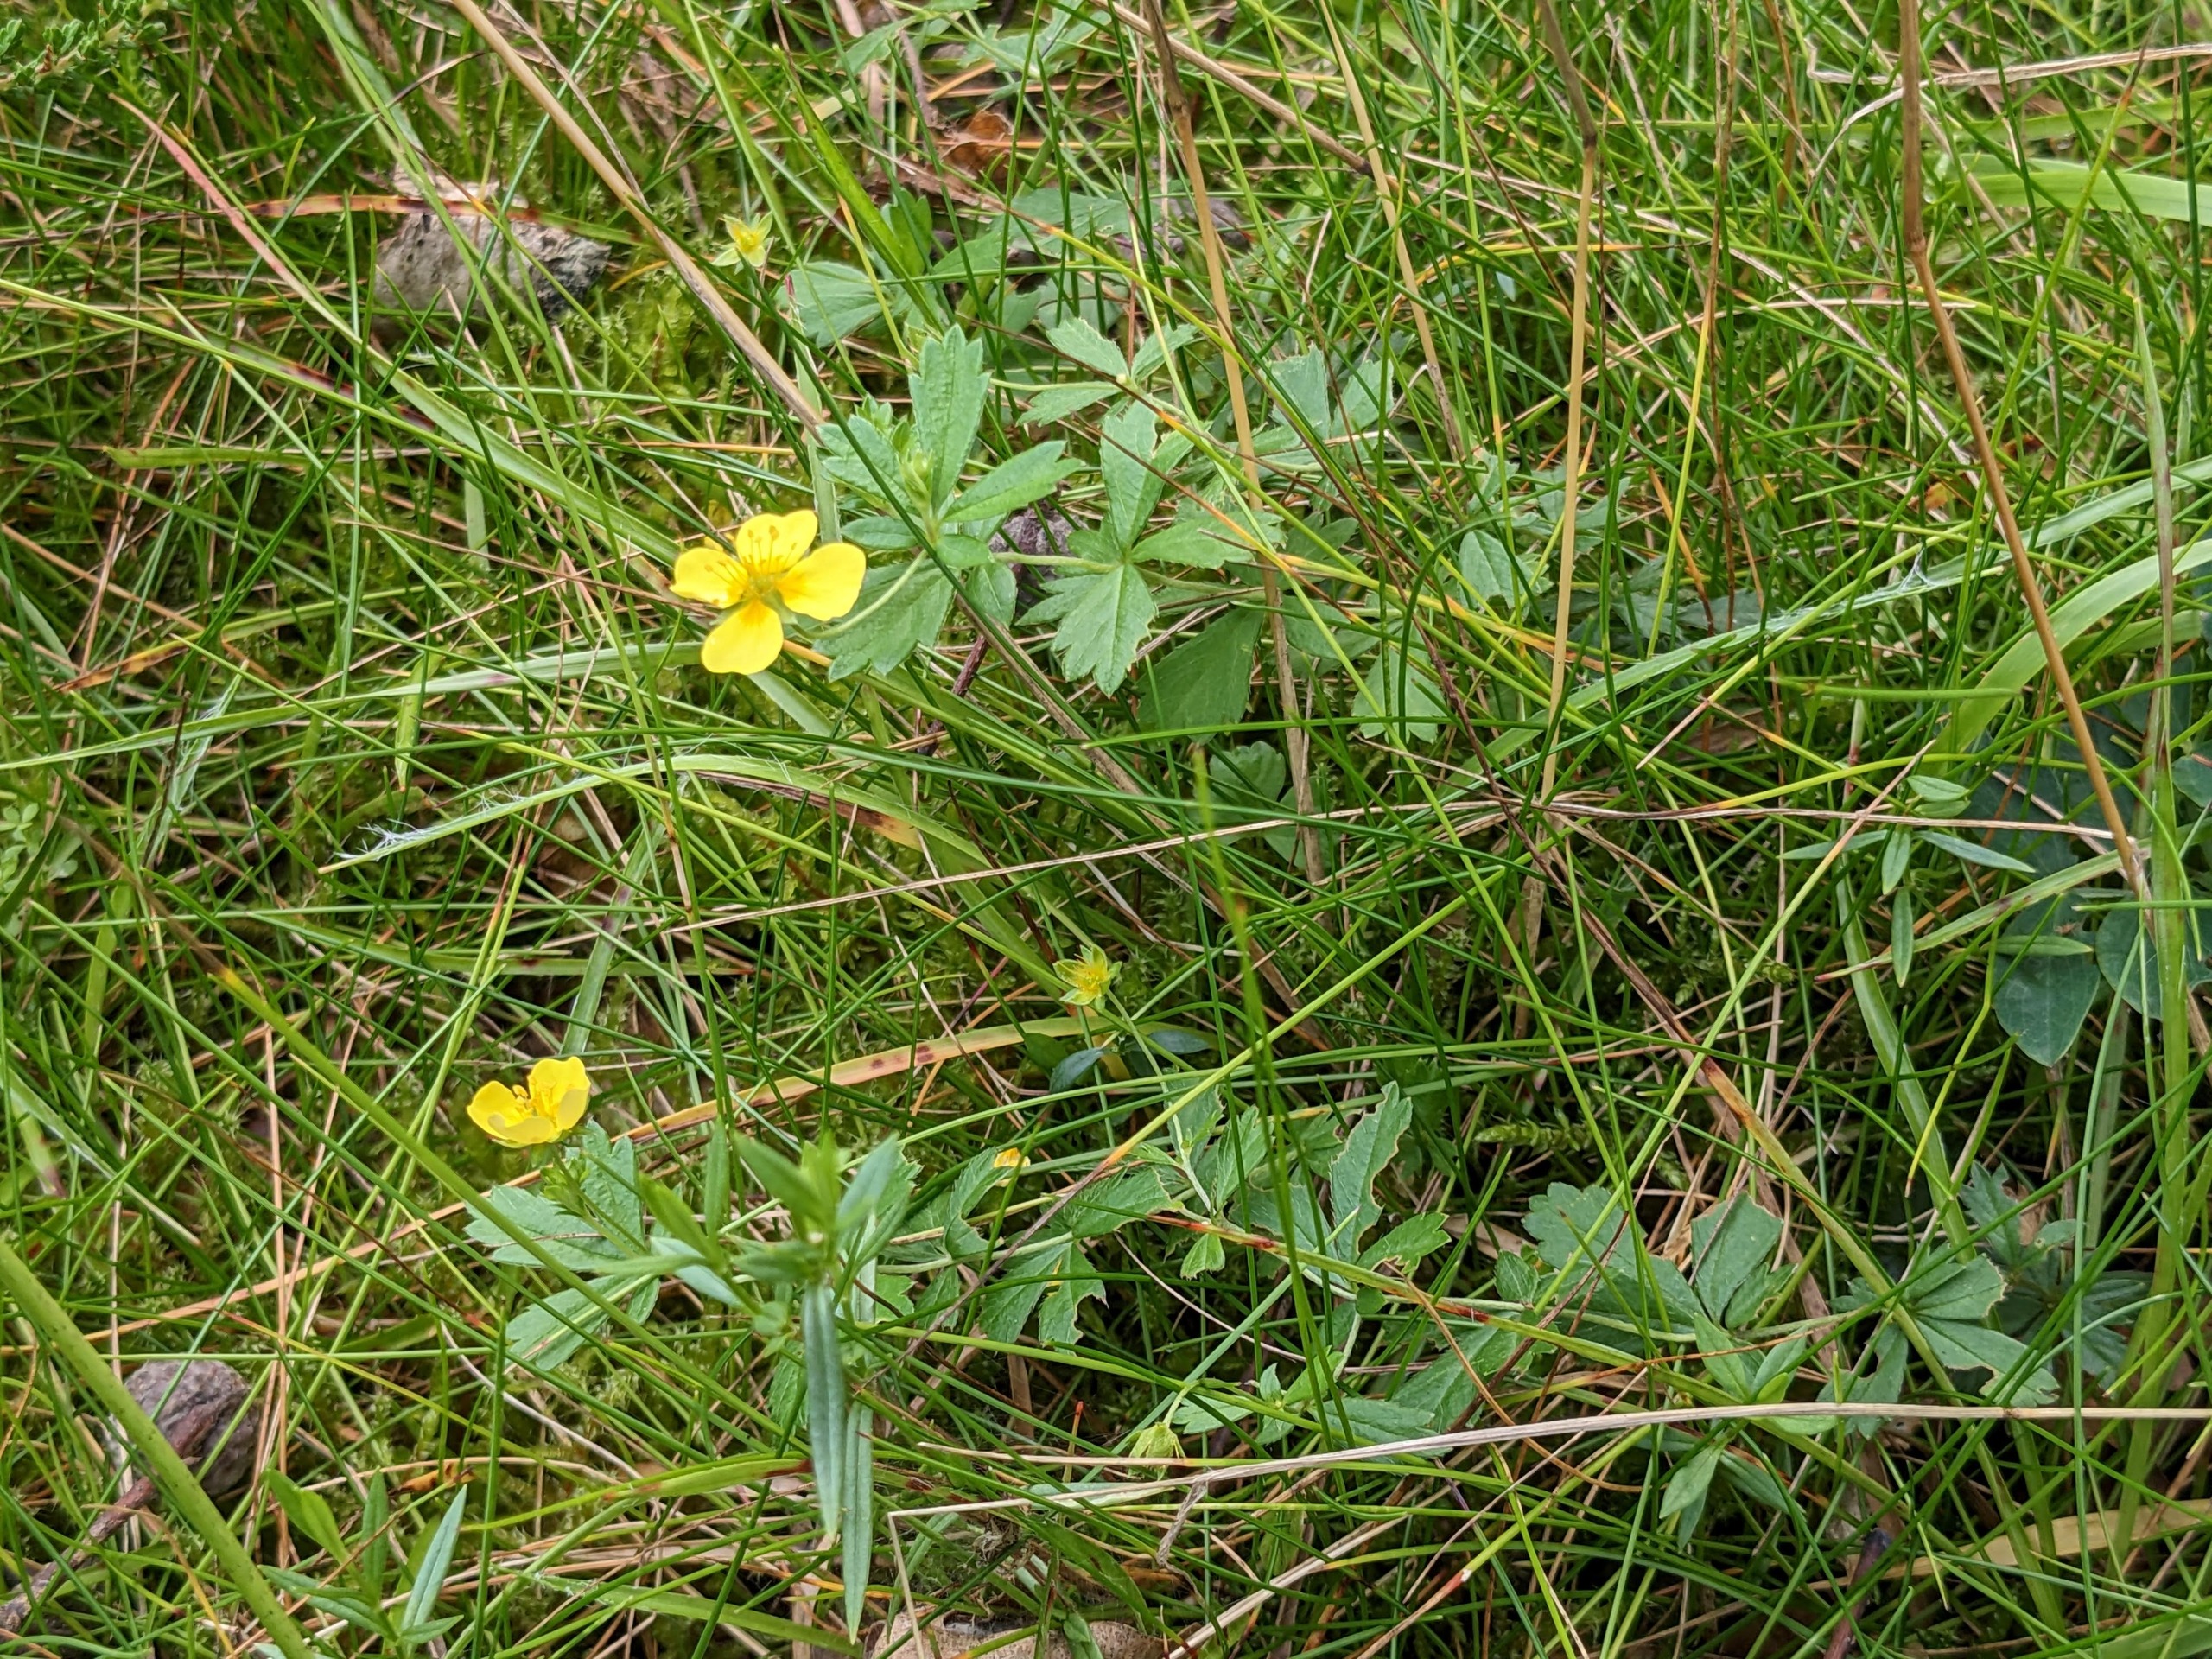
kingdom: Plantae
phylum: Tracheophyta
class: Magnoliopsida
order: Rosales
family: Rosaceae
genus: Potentilla
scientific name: Potentilla erecta
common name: Tormentil
